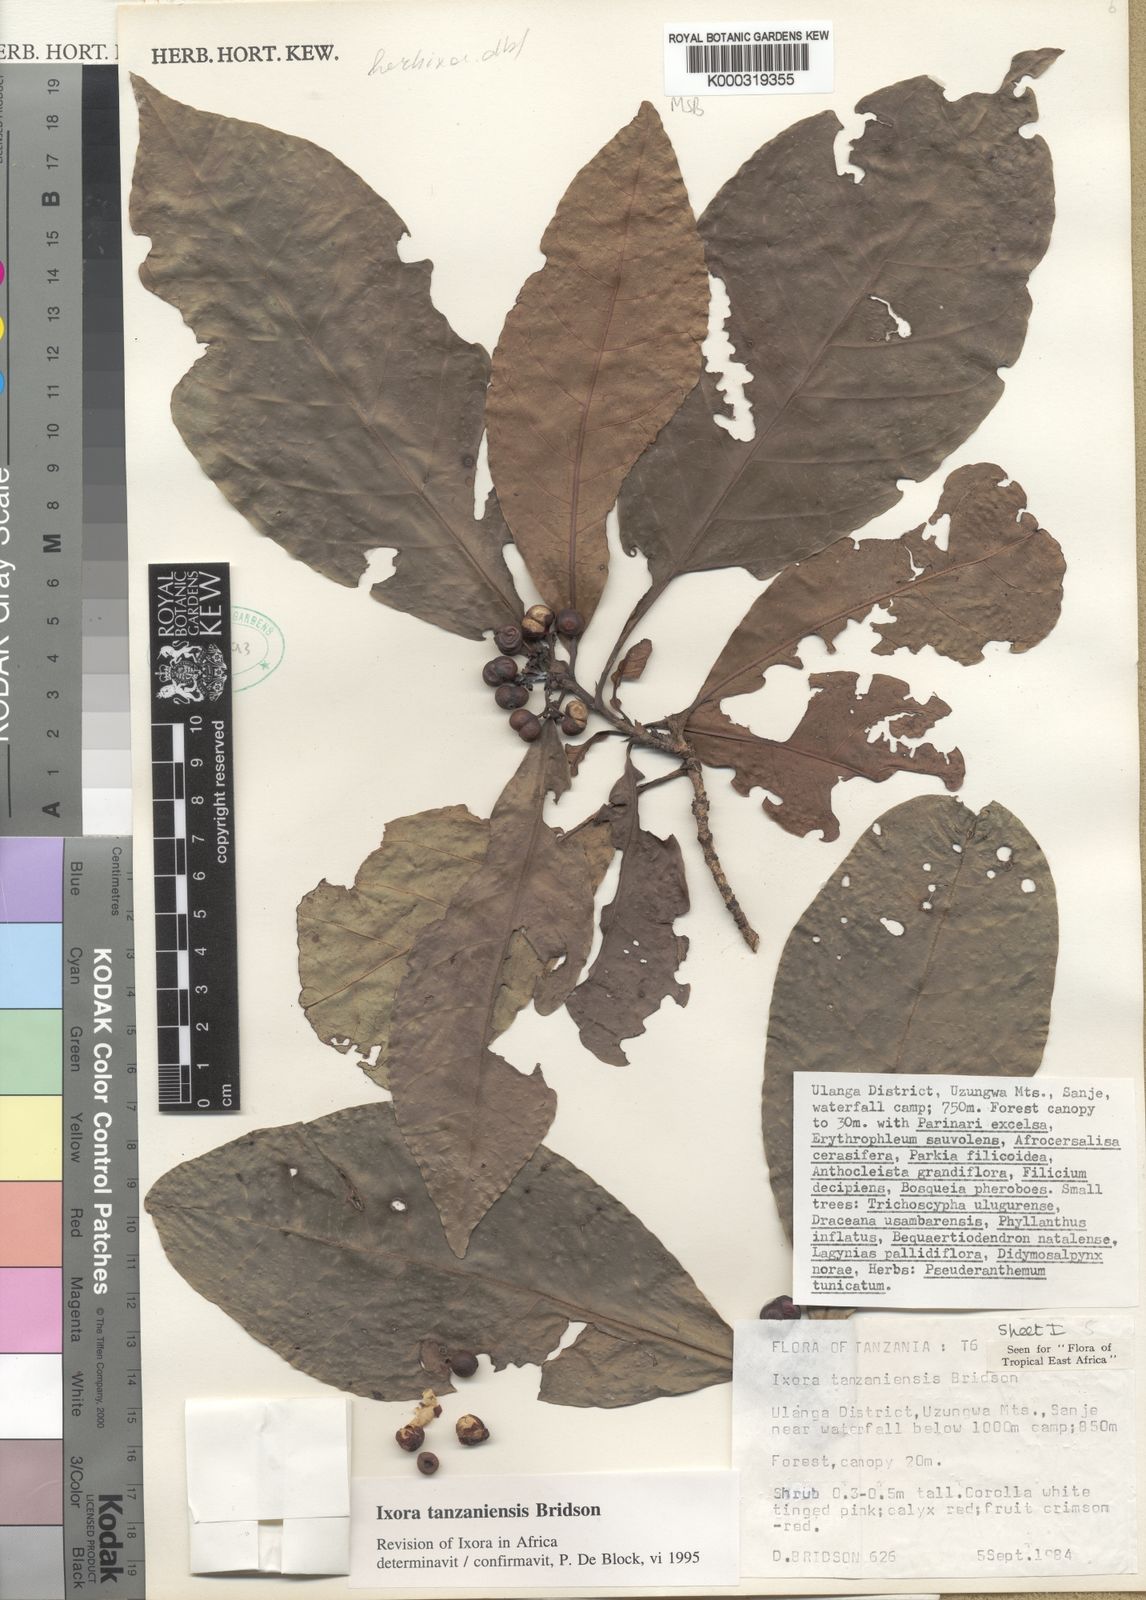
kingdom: Plantae
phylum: Tracheophyta
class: Magnoliopsida
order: Gentianales
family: Rubiaceae
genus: Ixora
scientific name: Ixora tanzaniensis
